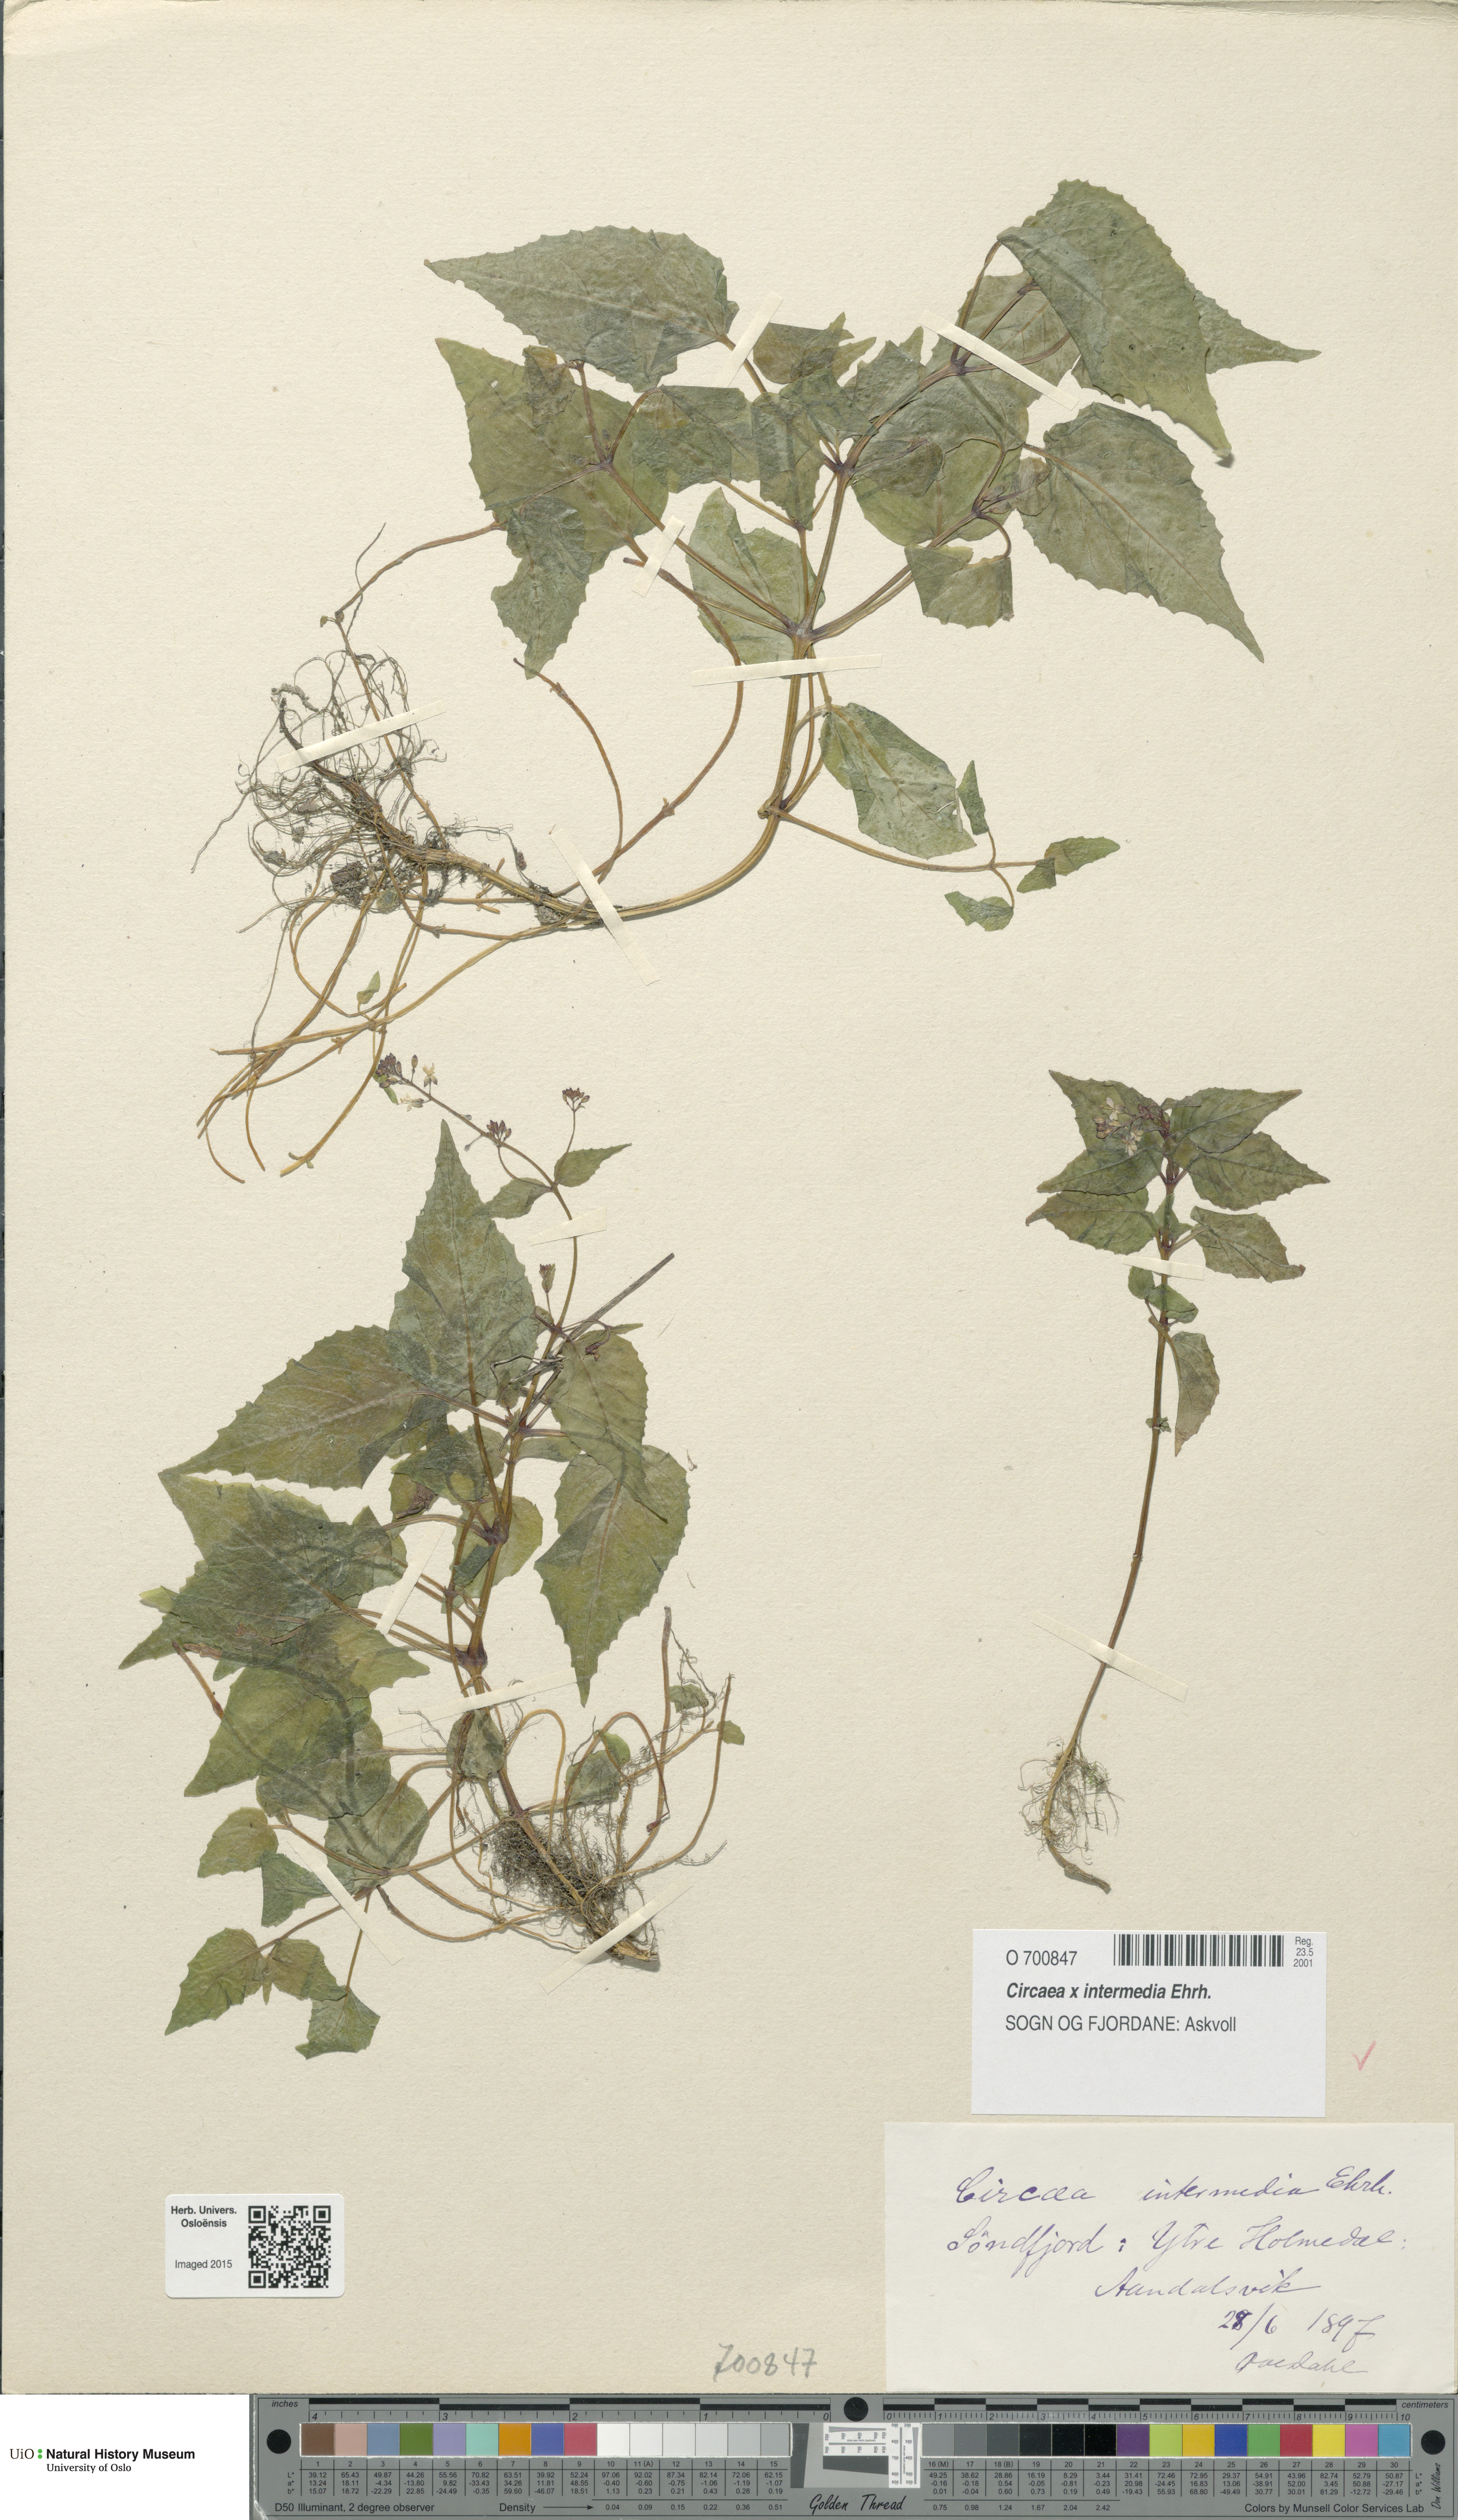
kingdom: Plantae
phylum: Tracheophyta
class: Magnoliopsida
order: Myrtales
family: Onagraceae
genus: Circaea
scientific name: Circaea intermedia
